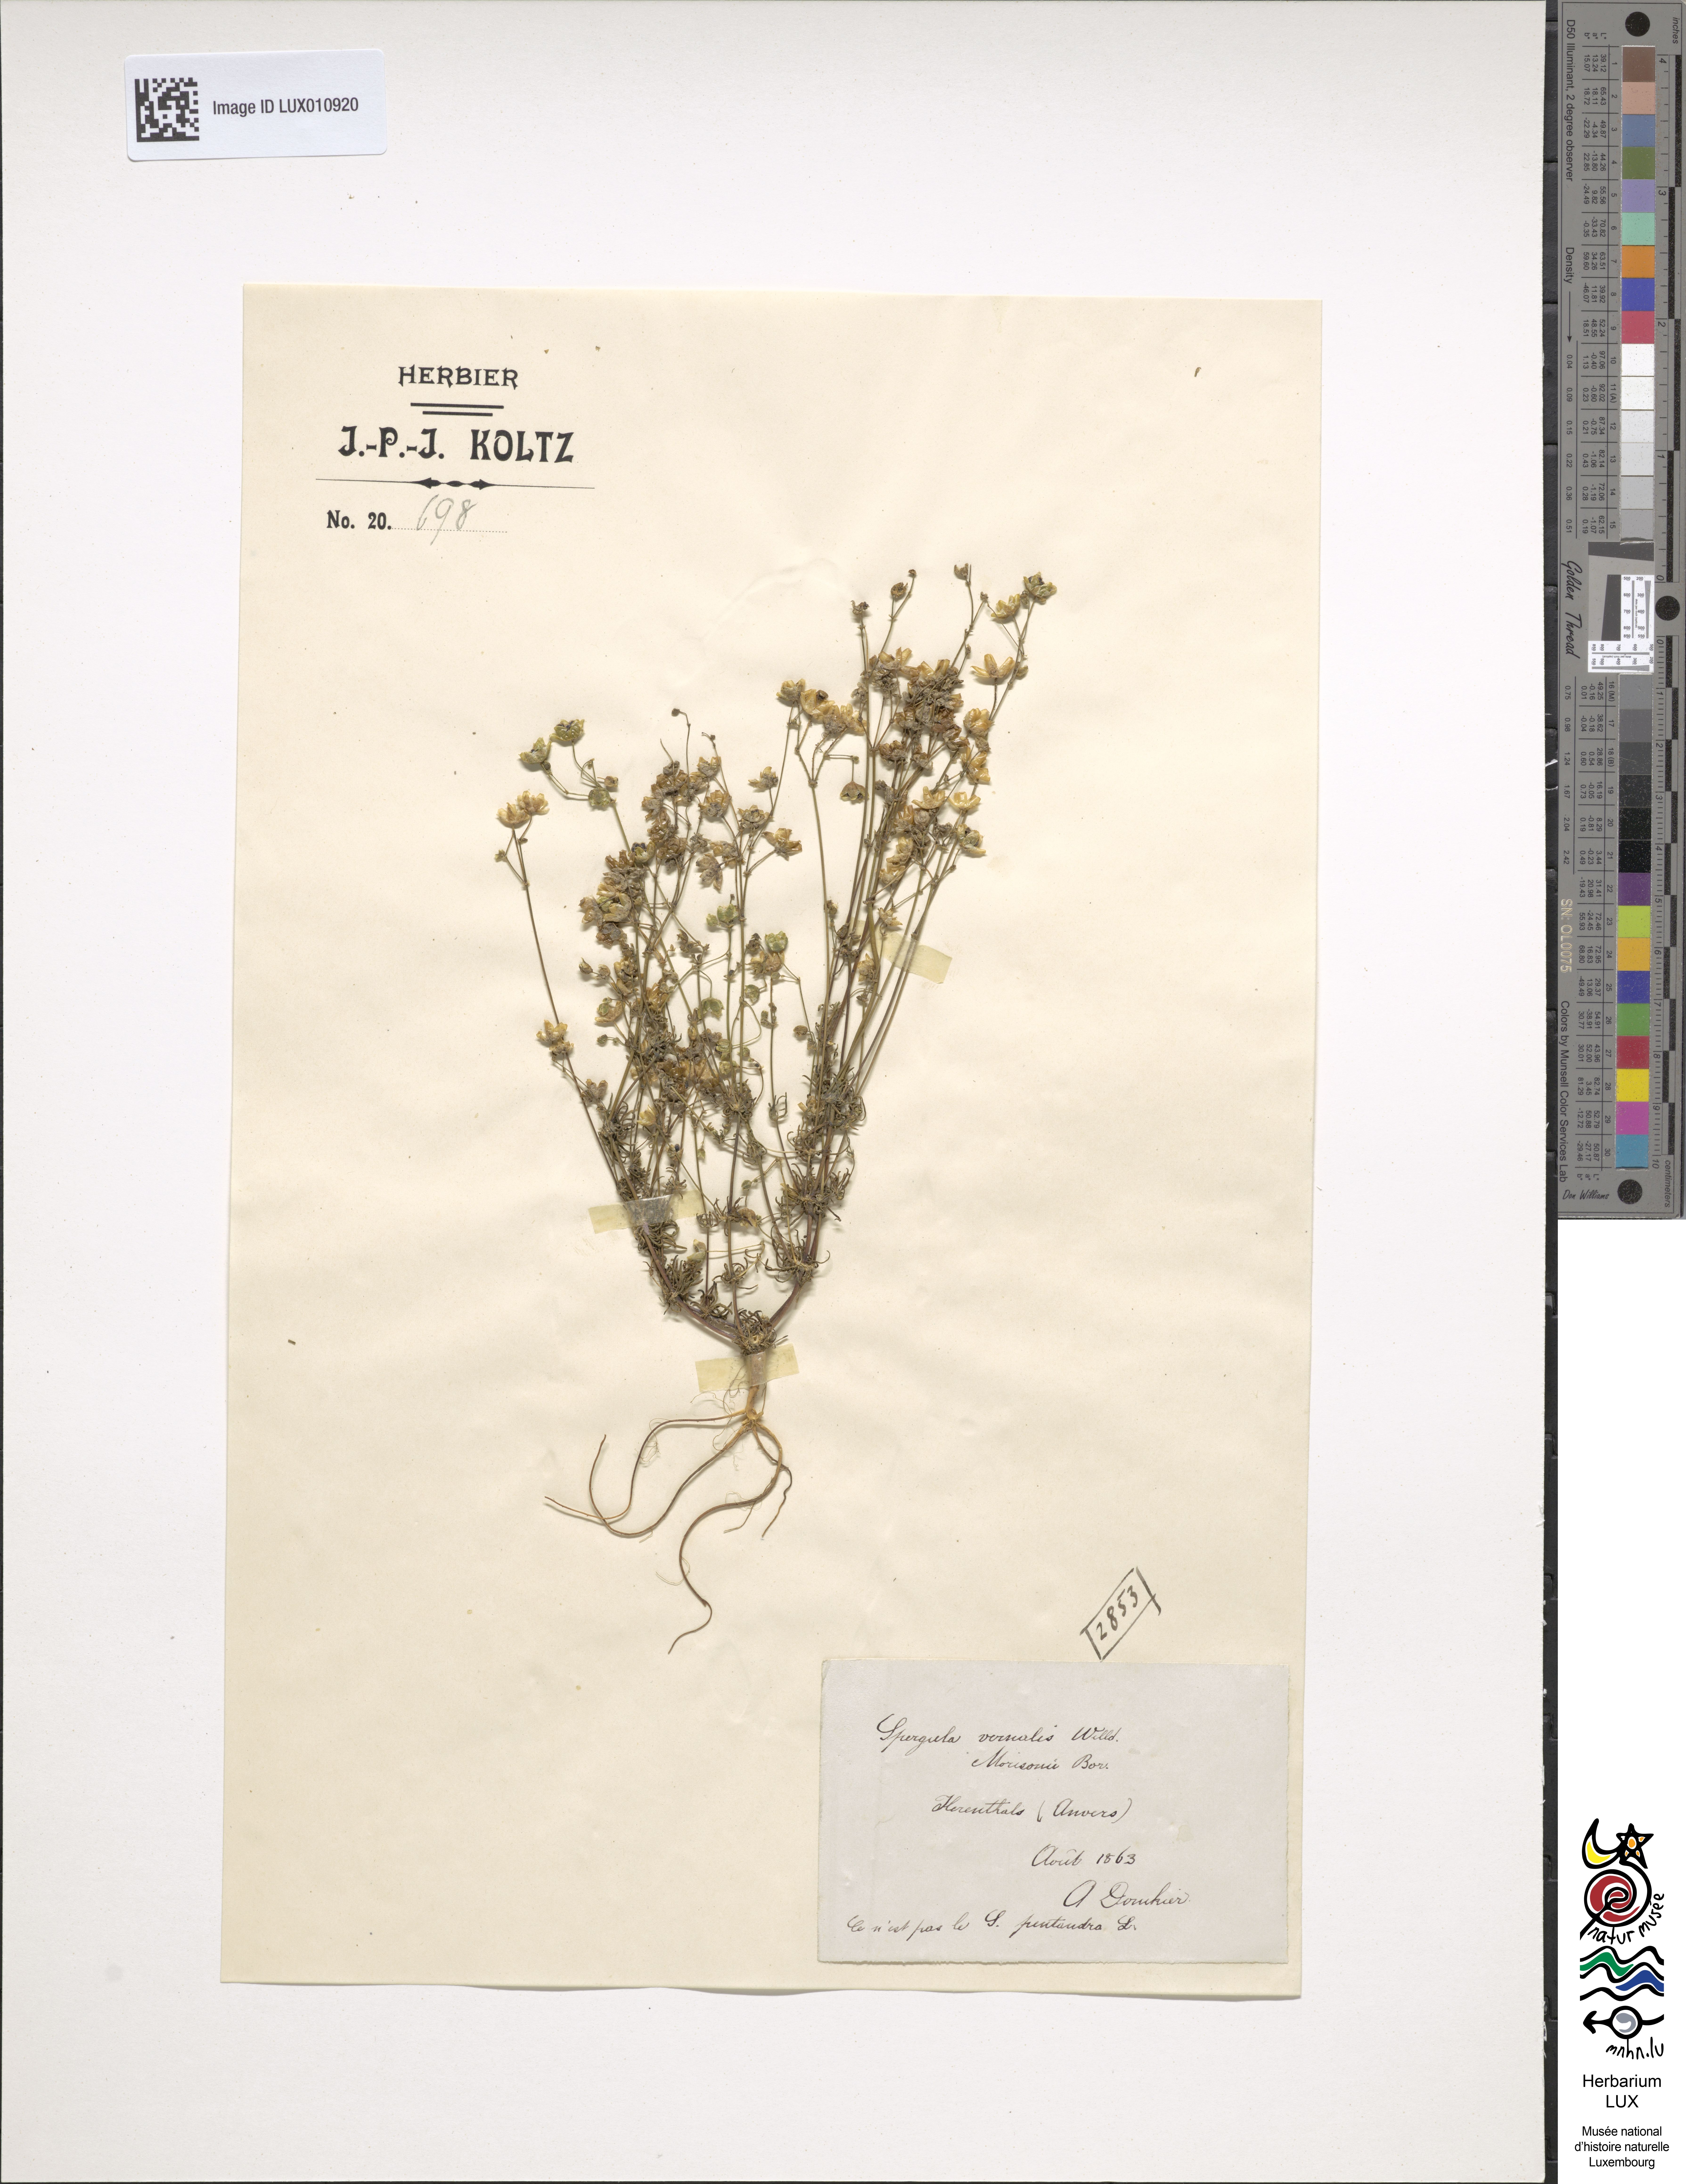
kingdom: Plantae
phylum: Tracheophyta
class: Magnoliopsida
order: Caryophyllales
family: Polygonaceae
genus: Oxyria
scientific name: Oxyria digyna
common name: Alpine mountain-sorrel
